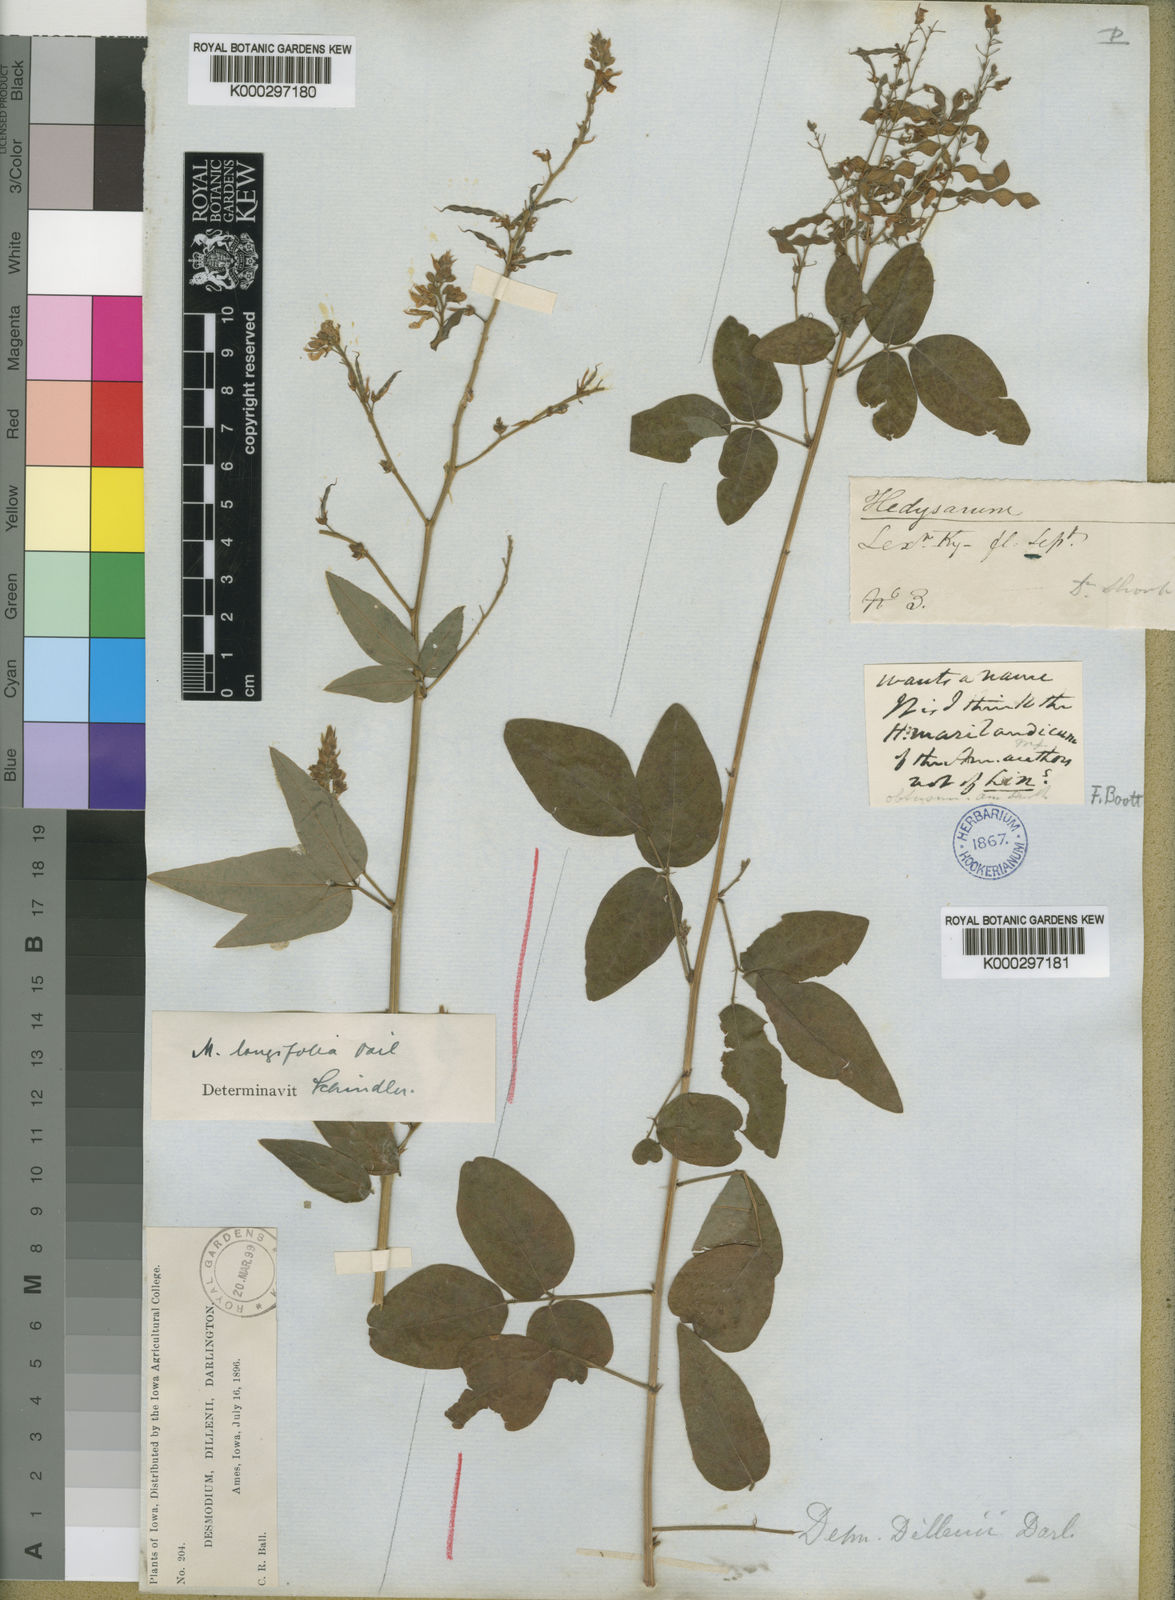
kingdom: Plantae
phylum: Tracheophyta
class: Magnoliopsida
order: Fabales
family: Fabaceae
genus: Desmodium
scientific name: Desmodium perplexum
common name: Perplexed tick trefoil
